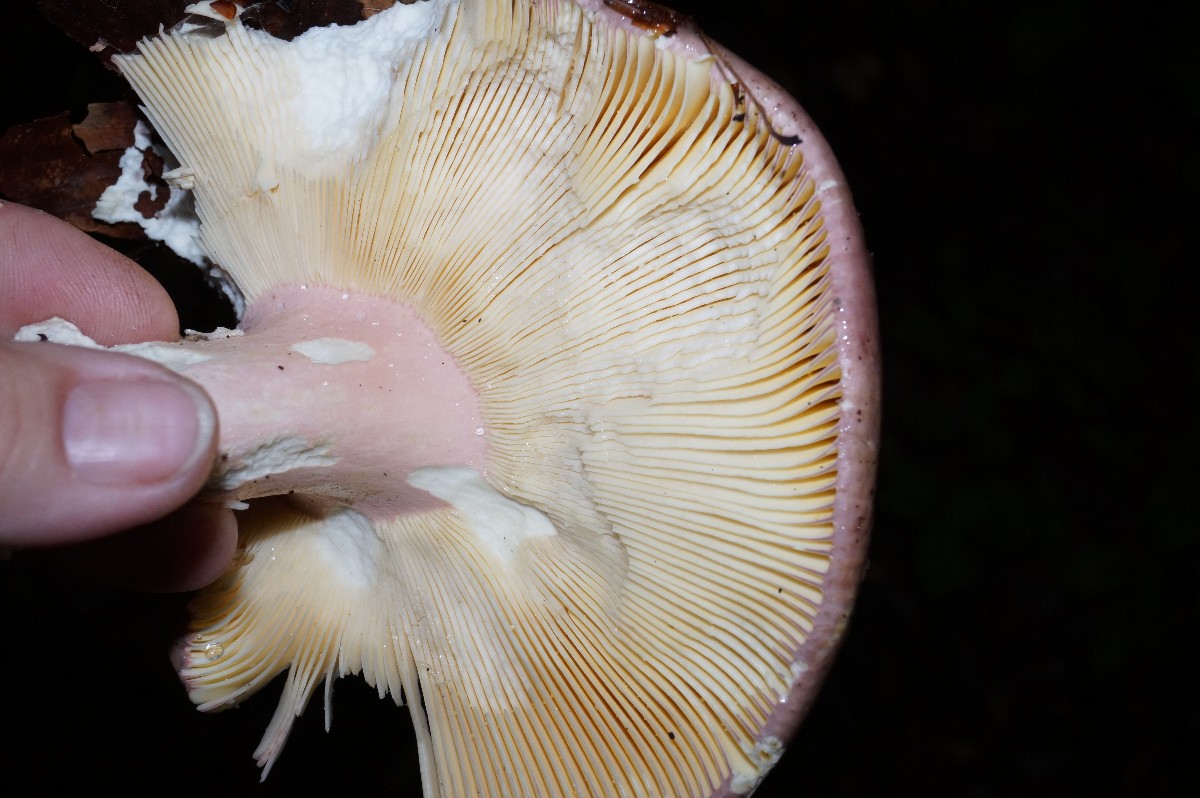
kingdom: Fungi
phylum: Basidiomycota
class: Agaricomycetes
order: Russulales
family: Russulaceae
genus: Russula
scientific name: Russula olivacea
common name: stor skørhat
